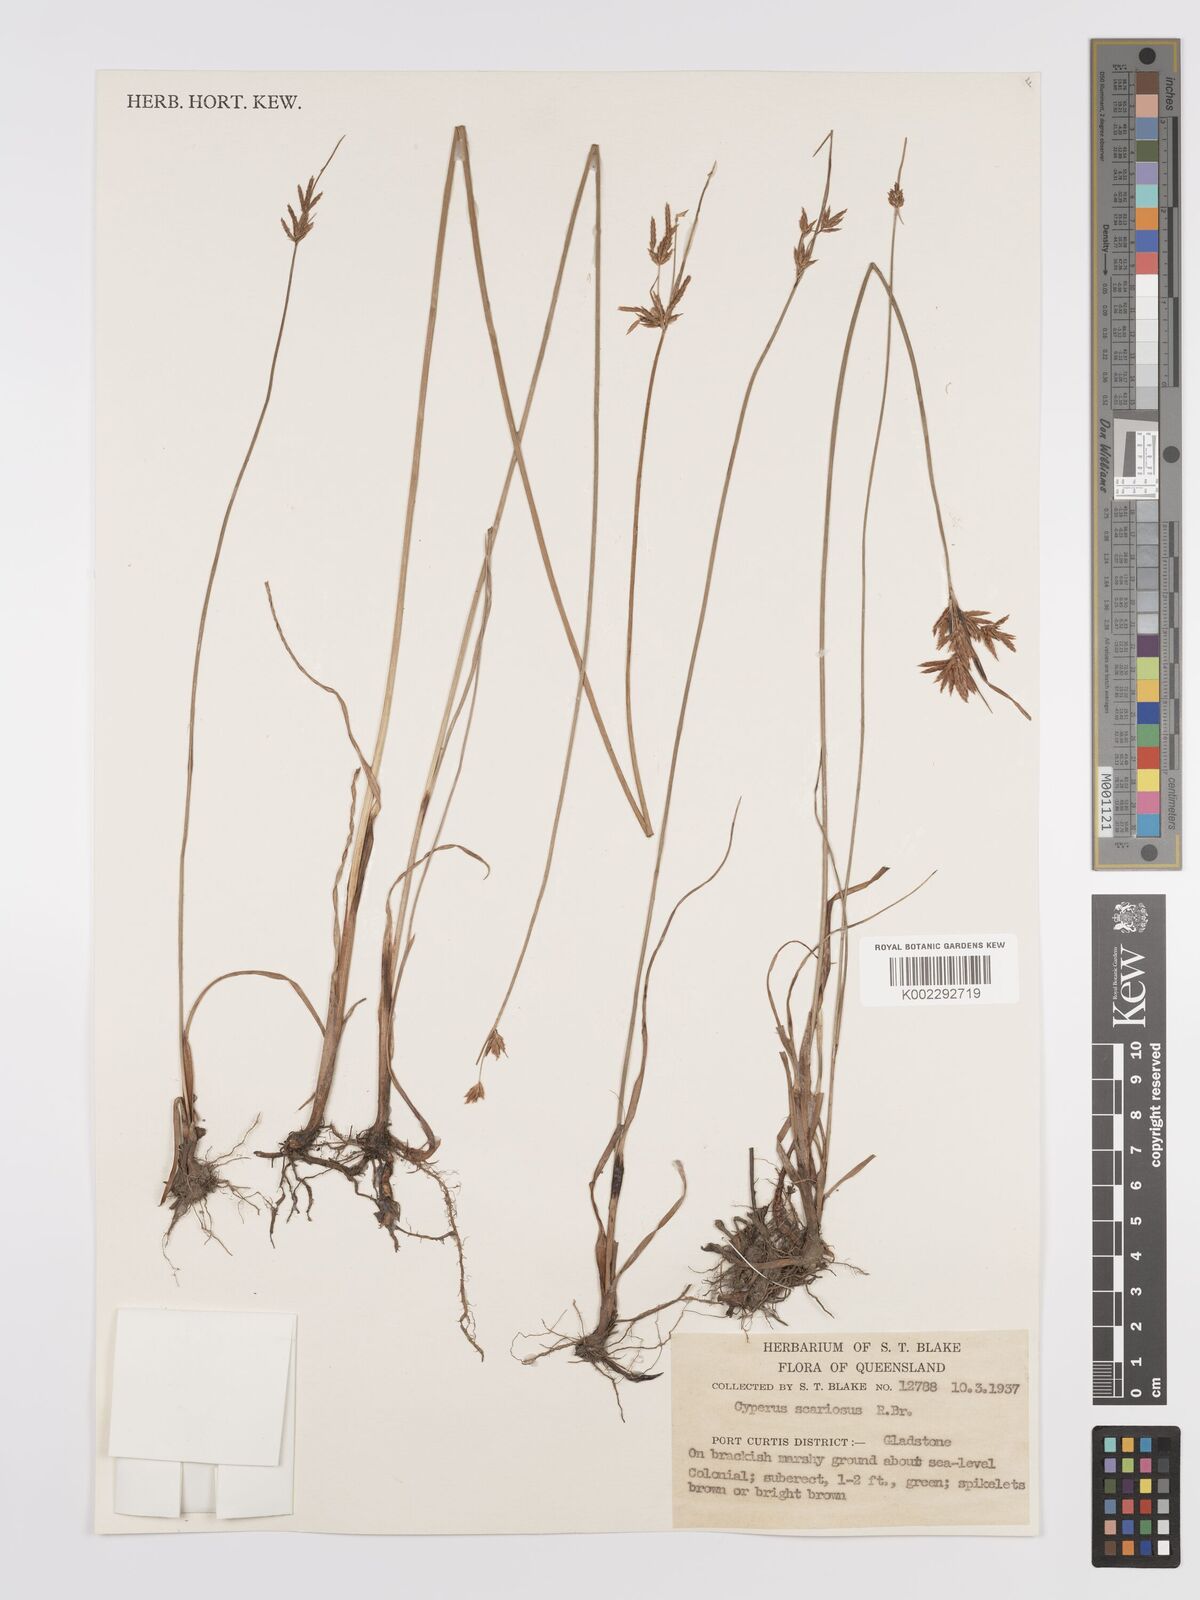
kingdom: Plantae
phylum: Tracheophyta
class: Liliopsida
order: Poales
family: Cyperaceae
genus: Cyperus
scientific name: Cyperus scariosus
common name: Cypriol
